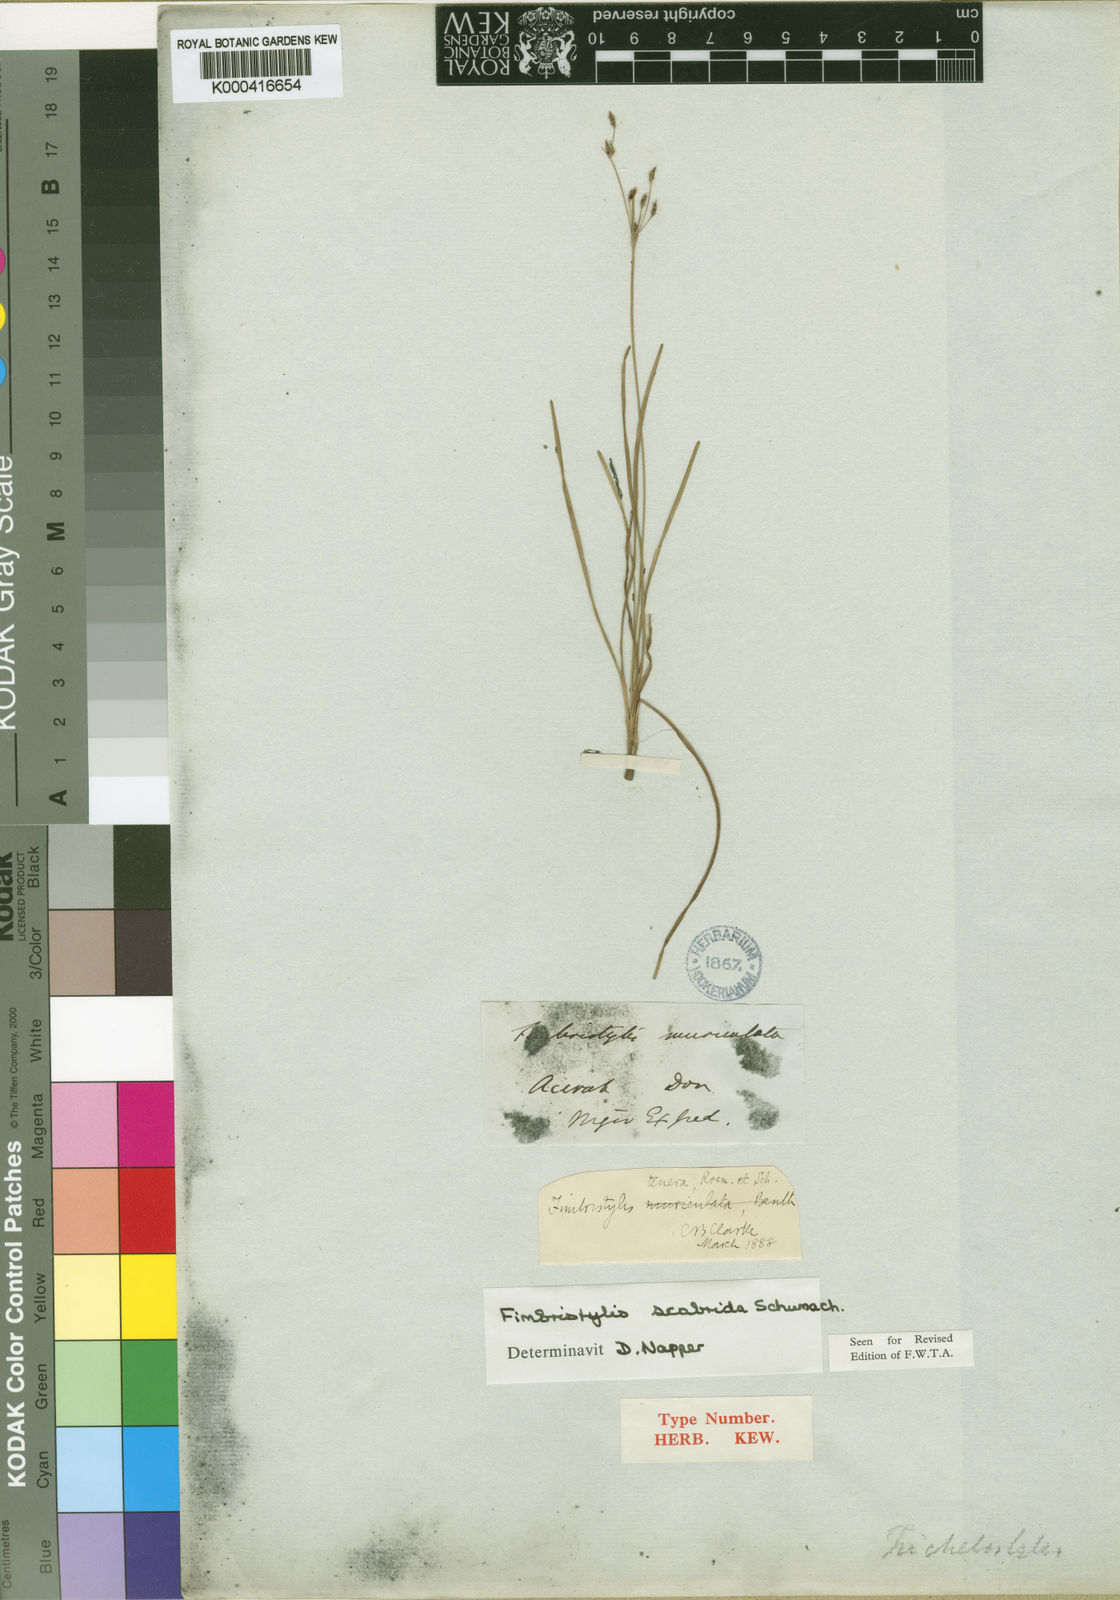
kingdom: Plantae
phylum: Tracheophyta
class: Liliopsida
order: Poales
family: Cyperaceae
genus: Fimbristylis
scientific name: Fimbristylis scabrida
